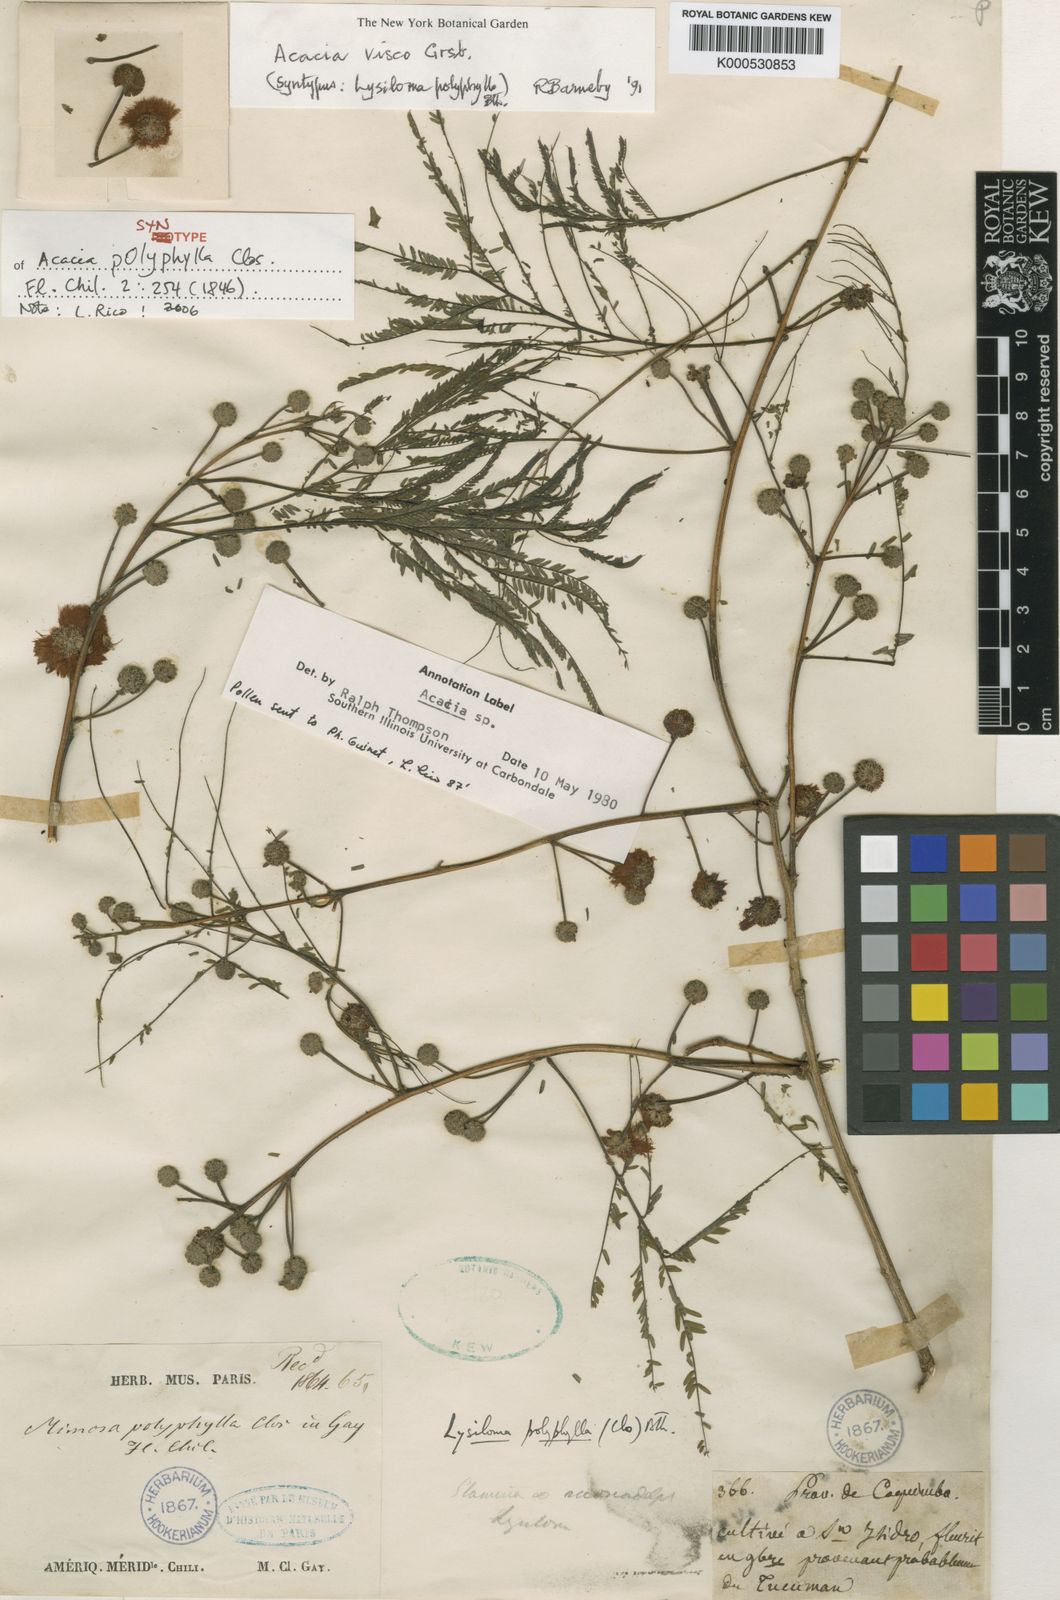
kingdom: Plantae
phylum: Tracheophyta
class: Magnoliopsida
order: Fabales
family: Fabaceae
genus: Parasenegalia
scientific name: Parasenegalia visco
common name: Visco
